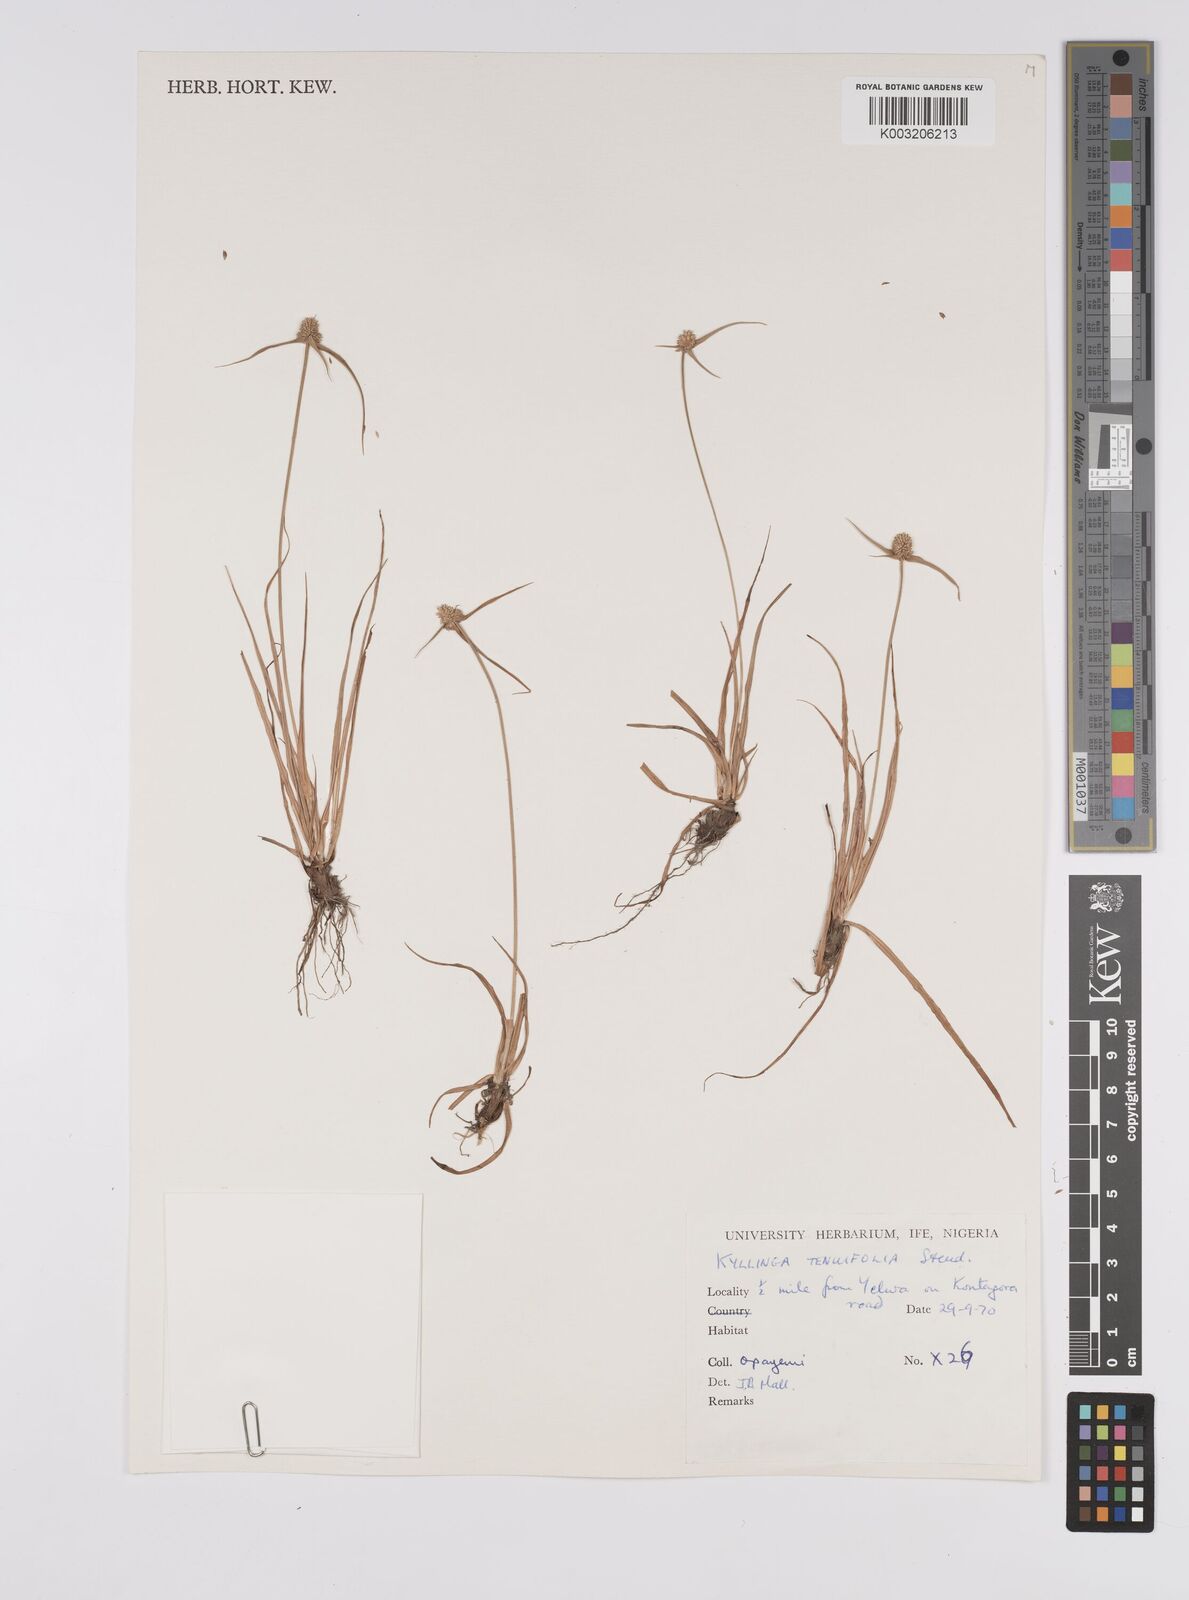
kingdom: Plantae
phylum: Tracheophyta
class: Liliopsida
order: Poales
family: Cyperaceae
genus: Cyperus
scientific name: Cyperus
